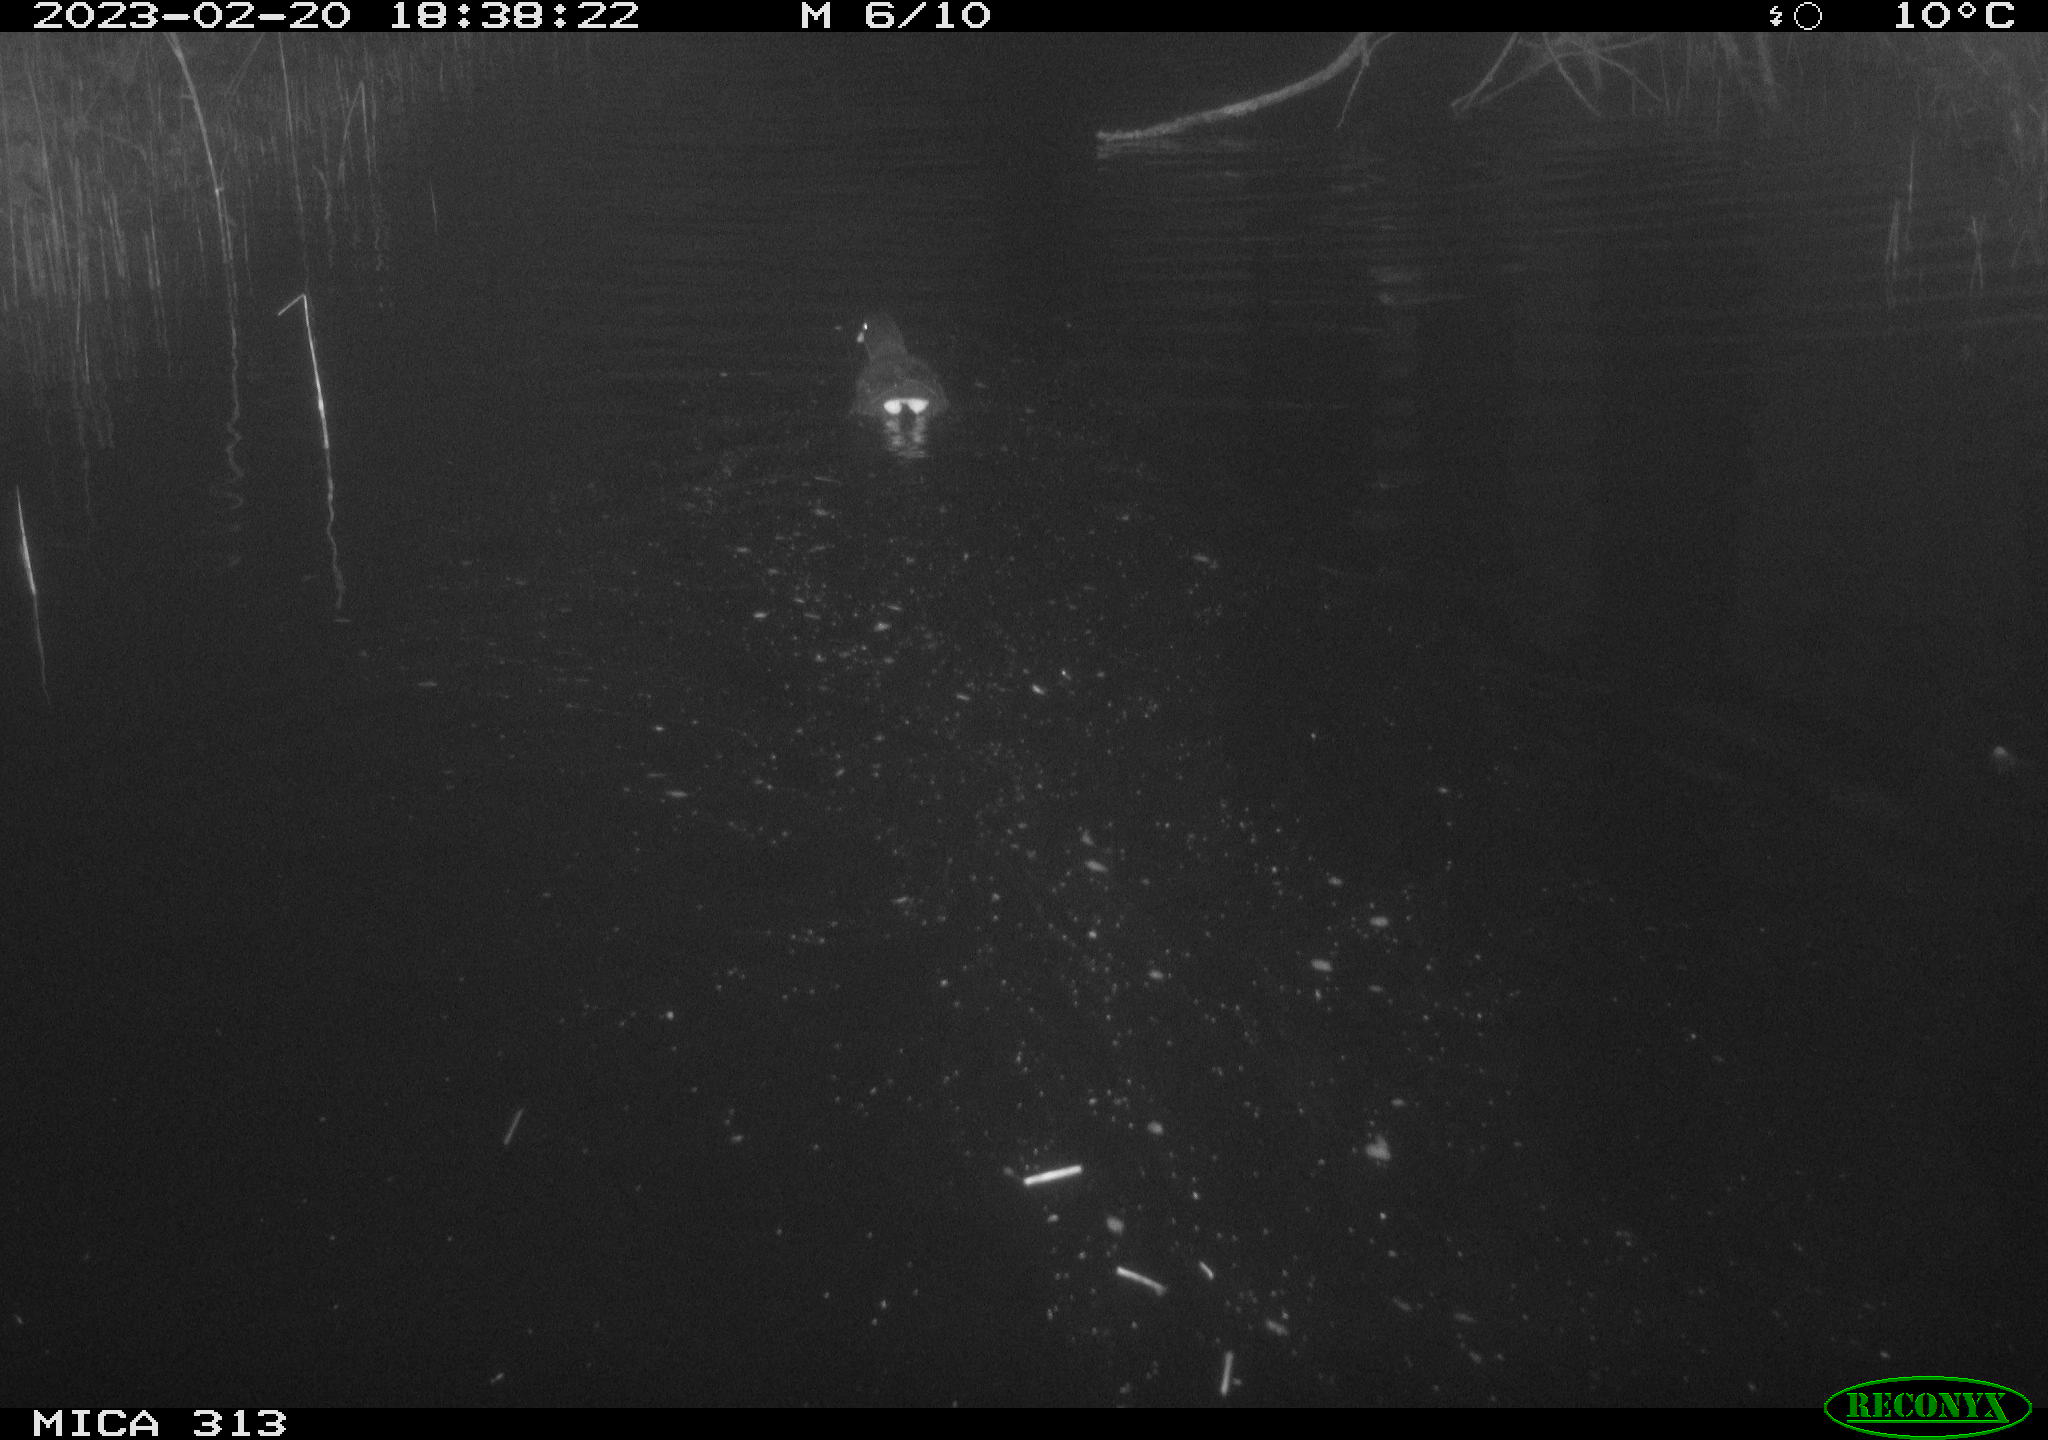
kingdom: Animalia
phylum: Chordata
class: Aves
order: Gruiformes
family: Rallidae
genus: Gallinula
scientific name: Gallinula chloropus
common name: Common moorhen
